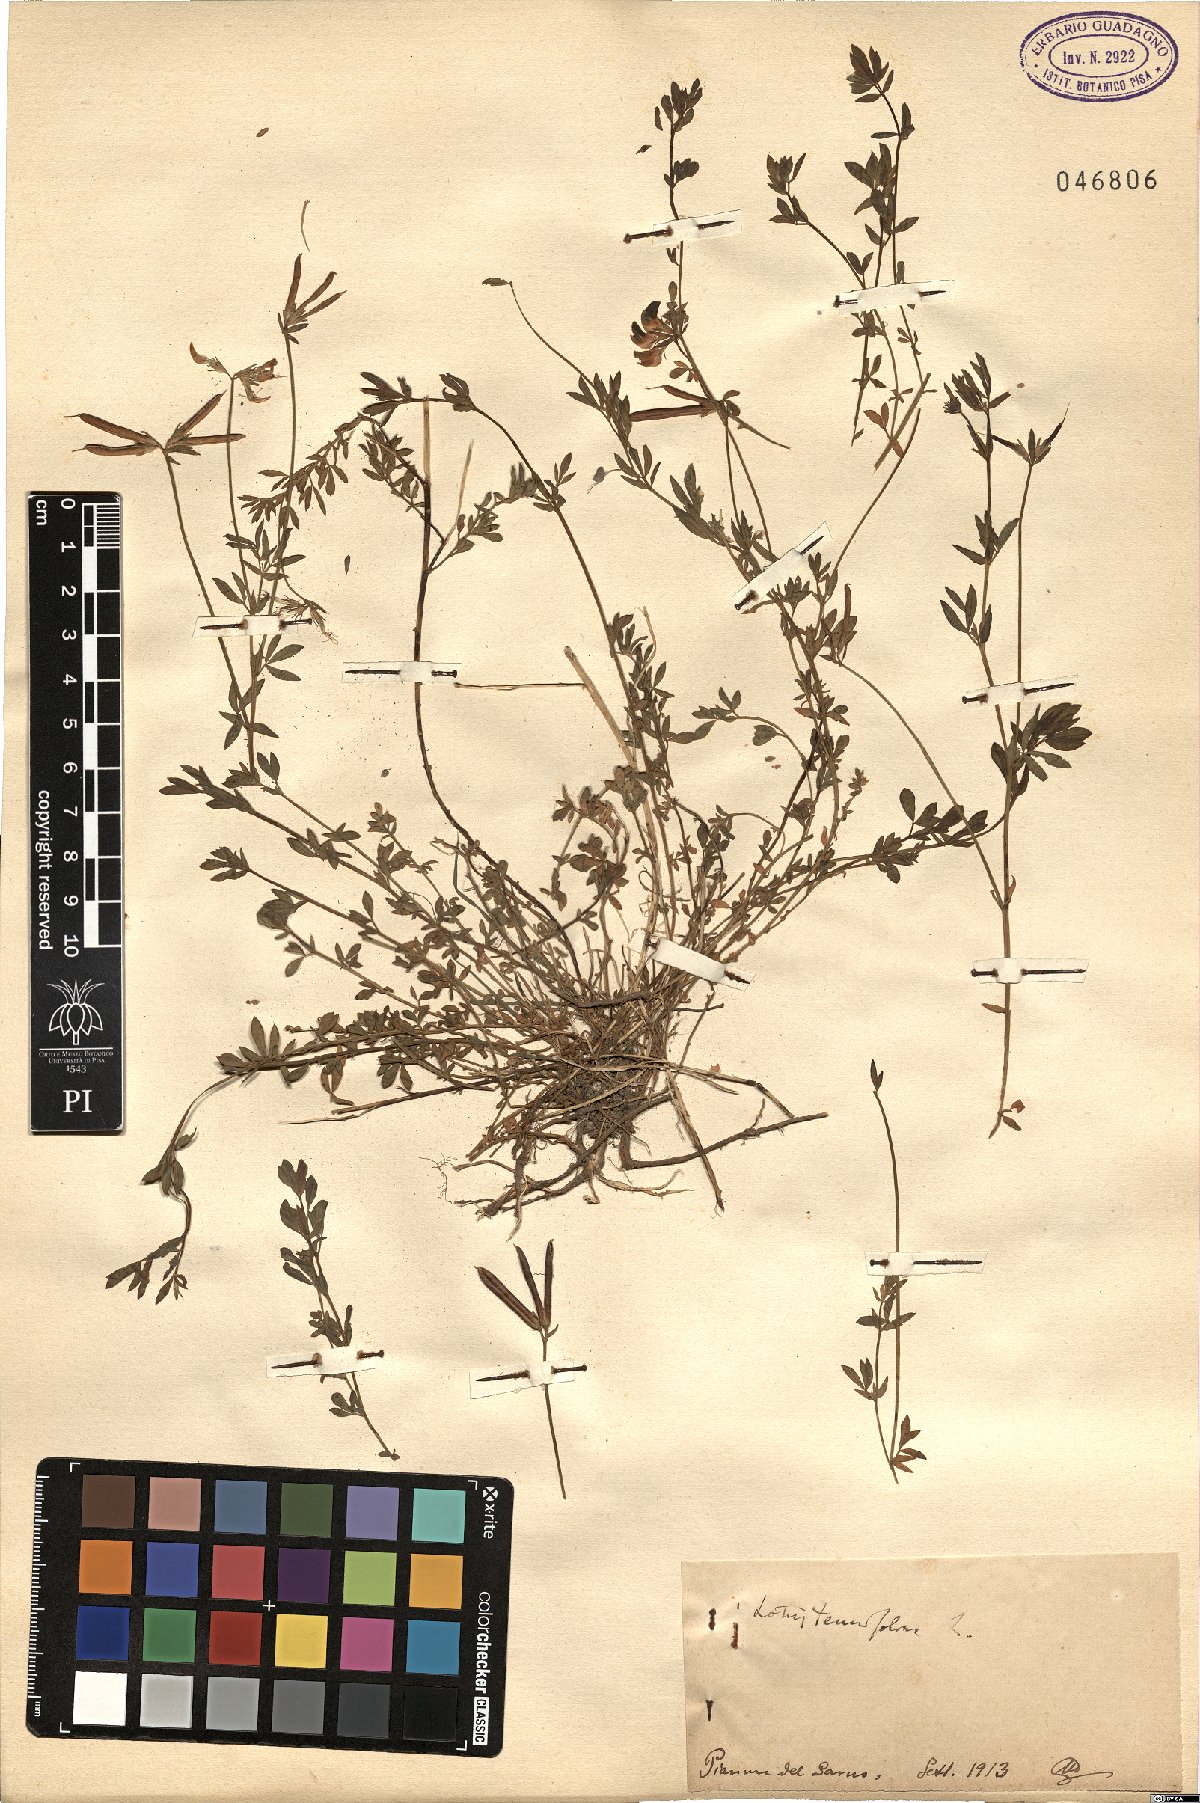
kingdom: Plantae
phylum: Tracheophyta
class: Magnoliopsida
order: Fabales
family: Fabaceae
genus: Lotus
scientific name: Lotus corniculatus
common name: Common bird's-foot-trefoil
